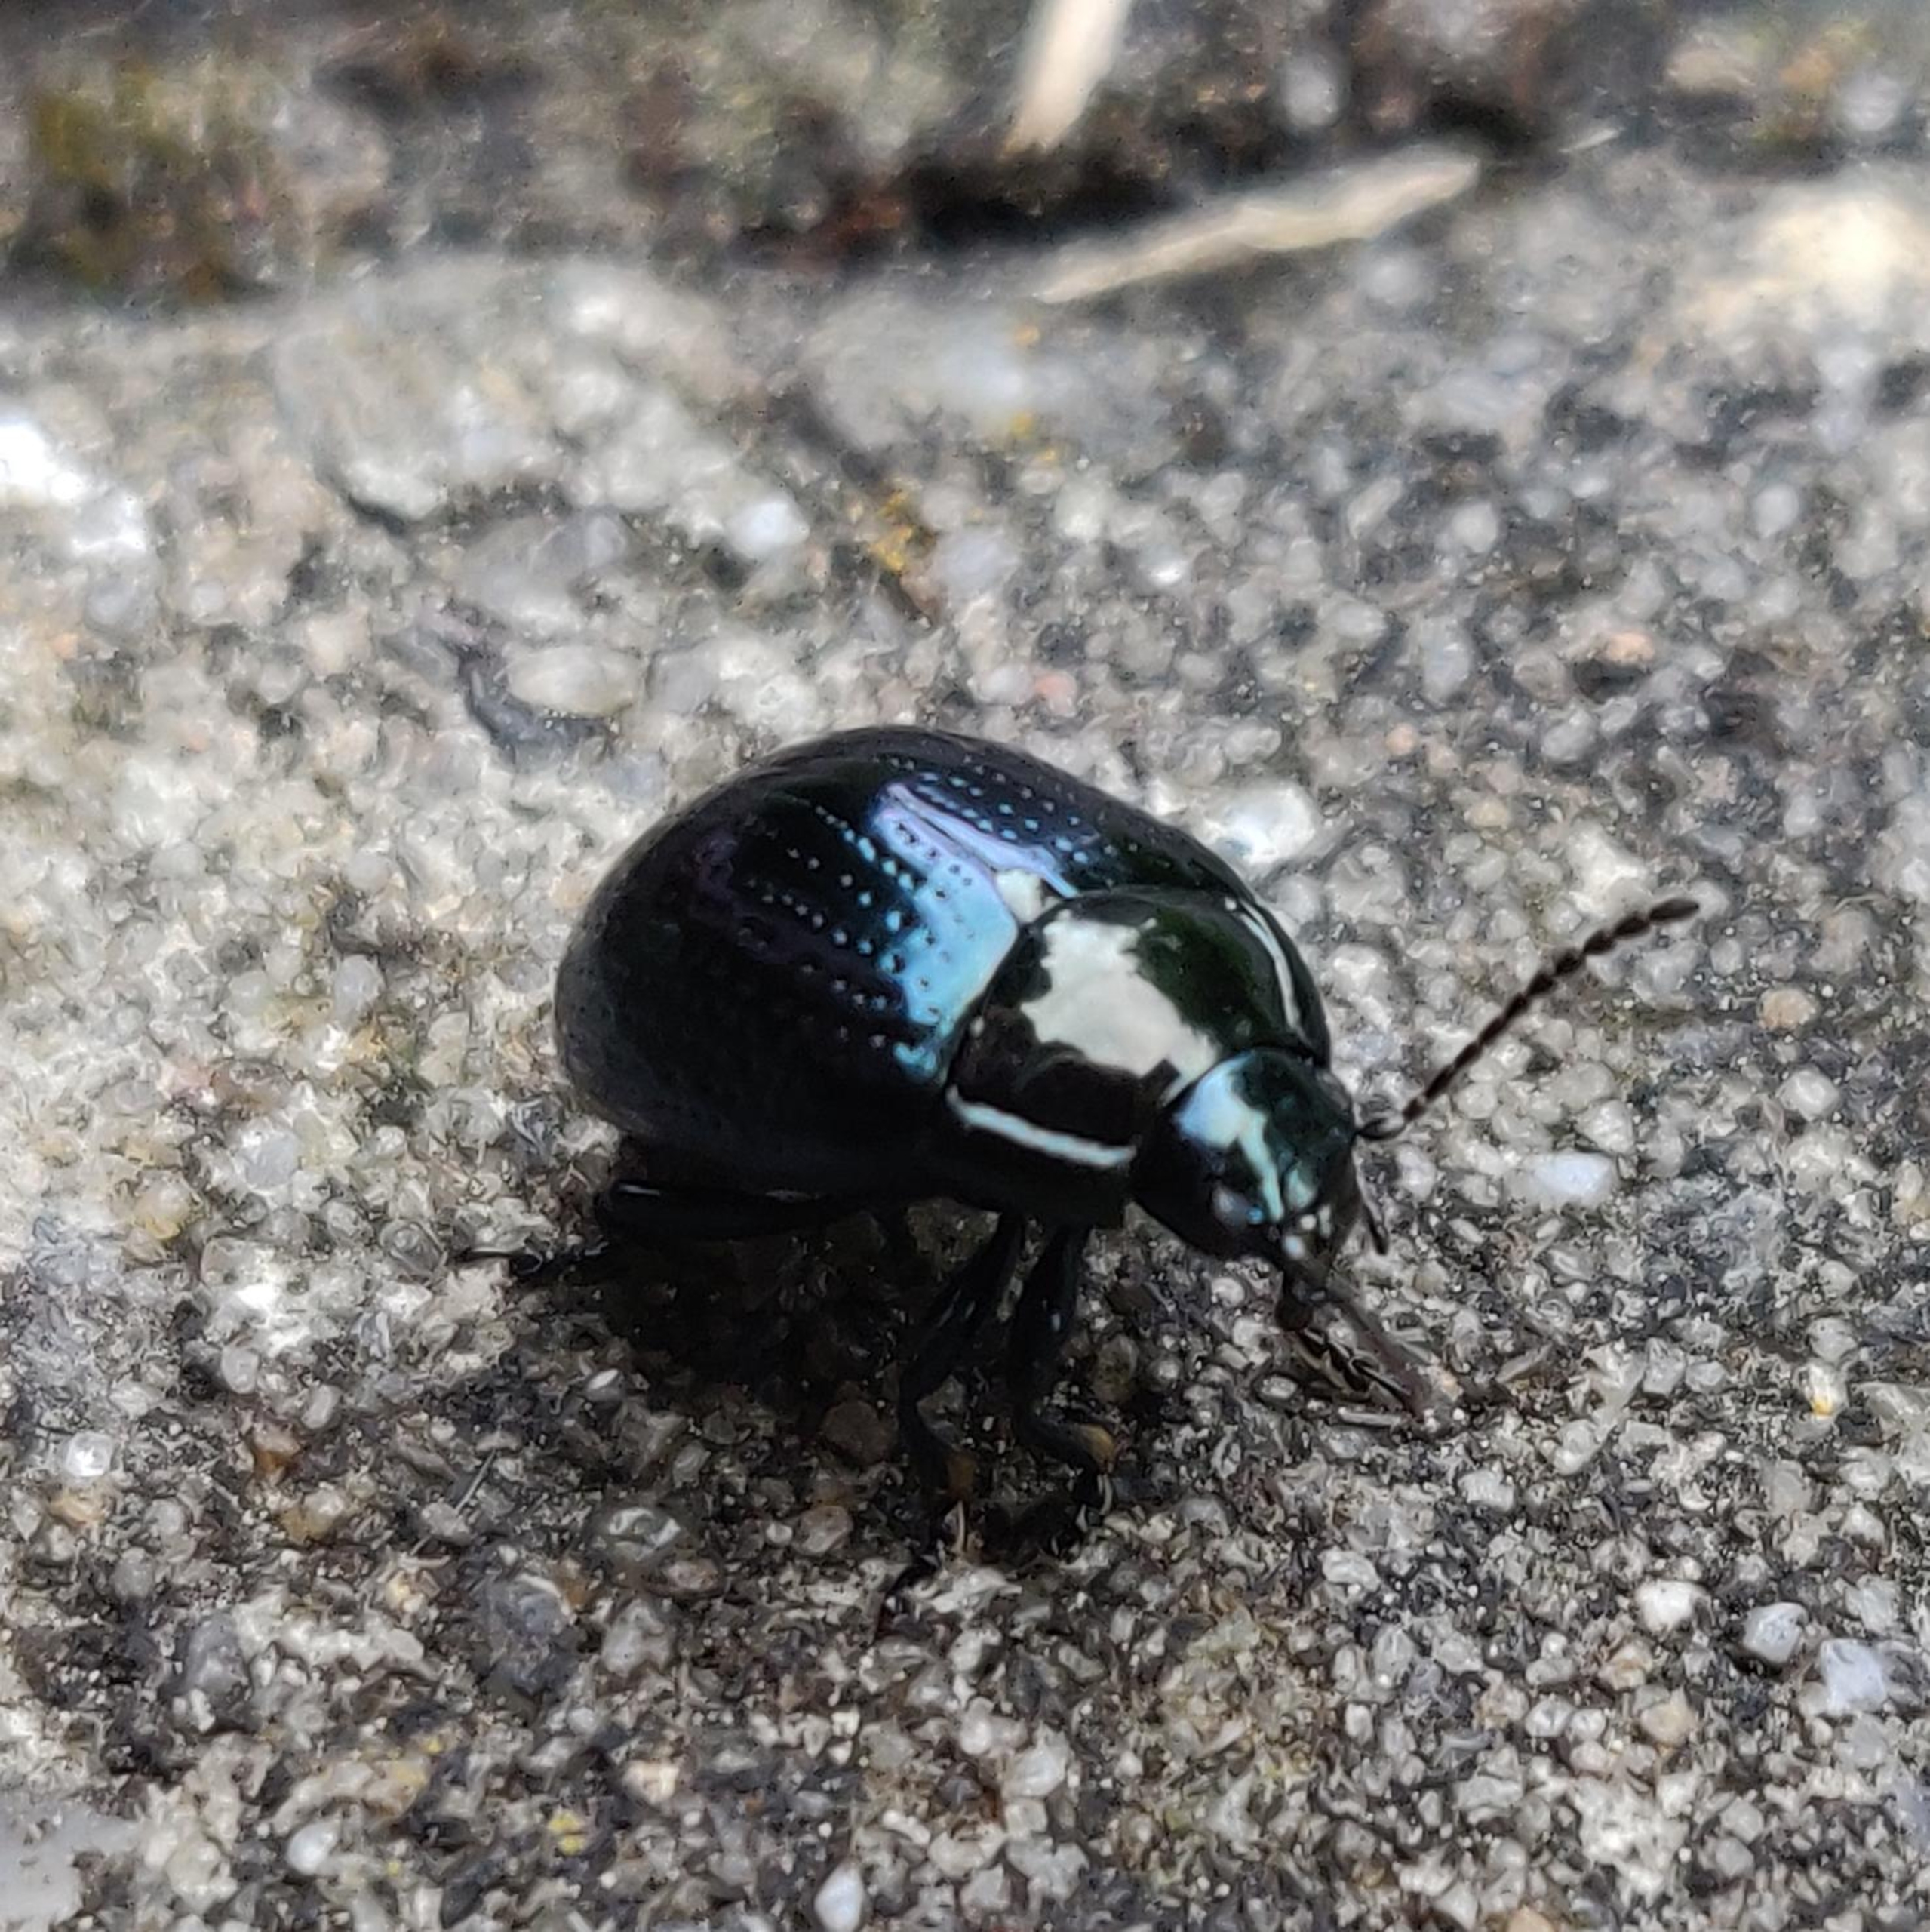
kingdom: Animalia
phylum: Arthropoda
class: Insecta
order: Coleoptera
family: Chrysomelidae
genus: Chrysolina
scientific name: Chrysolina oricalcia
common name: Rækkepunkteret guldbille
